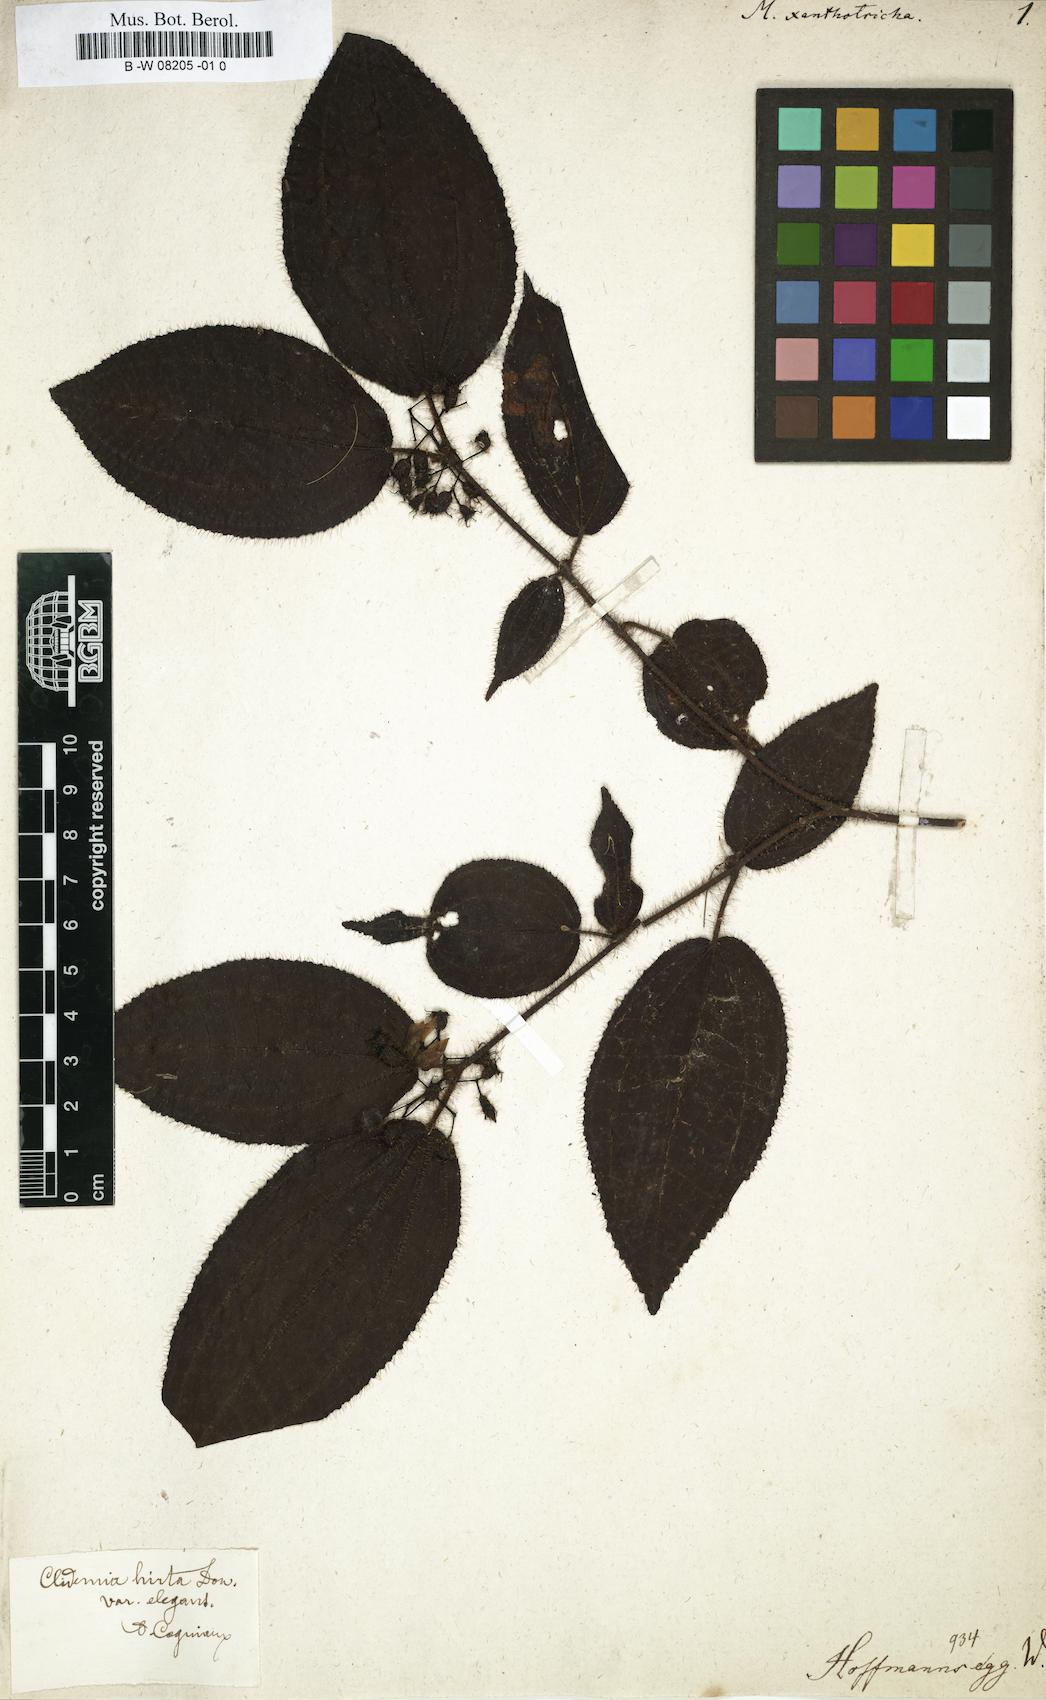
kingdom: Plantae
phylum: Tracheophyta
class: Magnoliopsida
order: Myrtales
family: Melastomataceae
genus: Melastoma
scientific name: Melastoma
